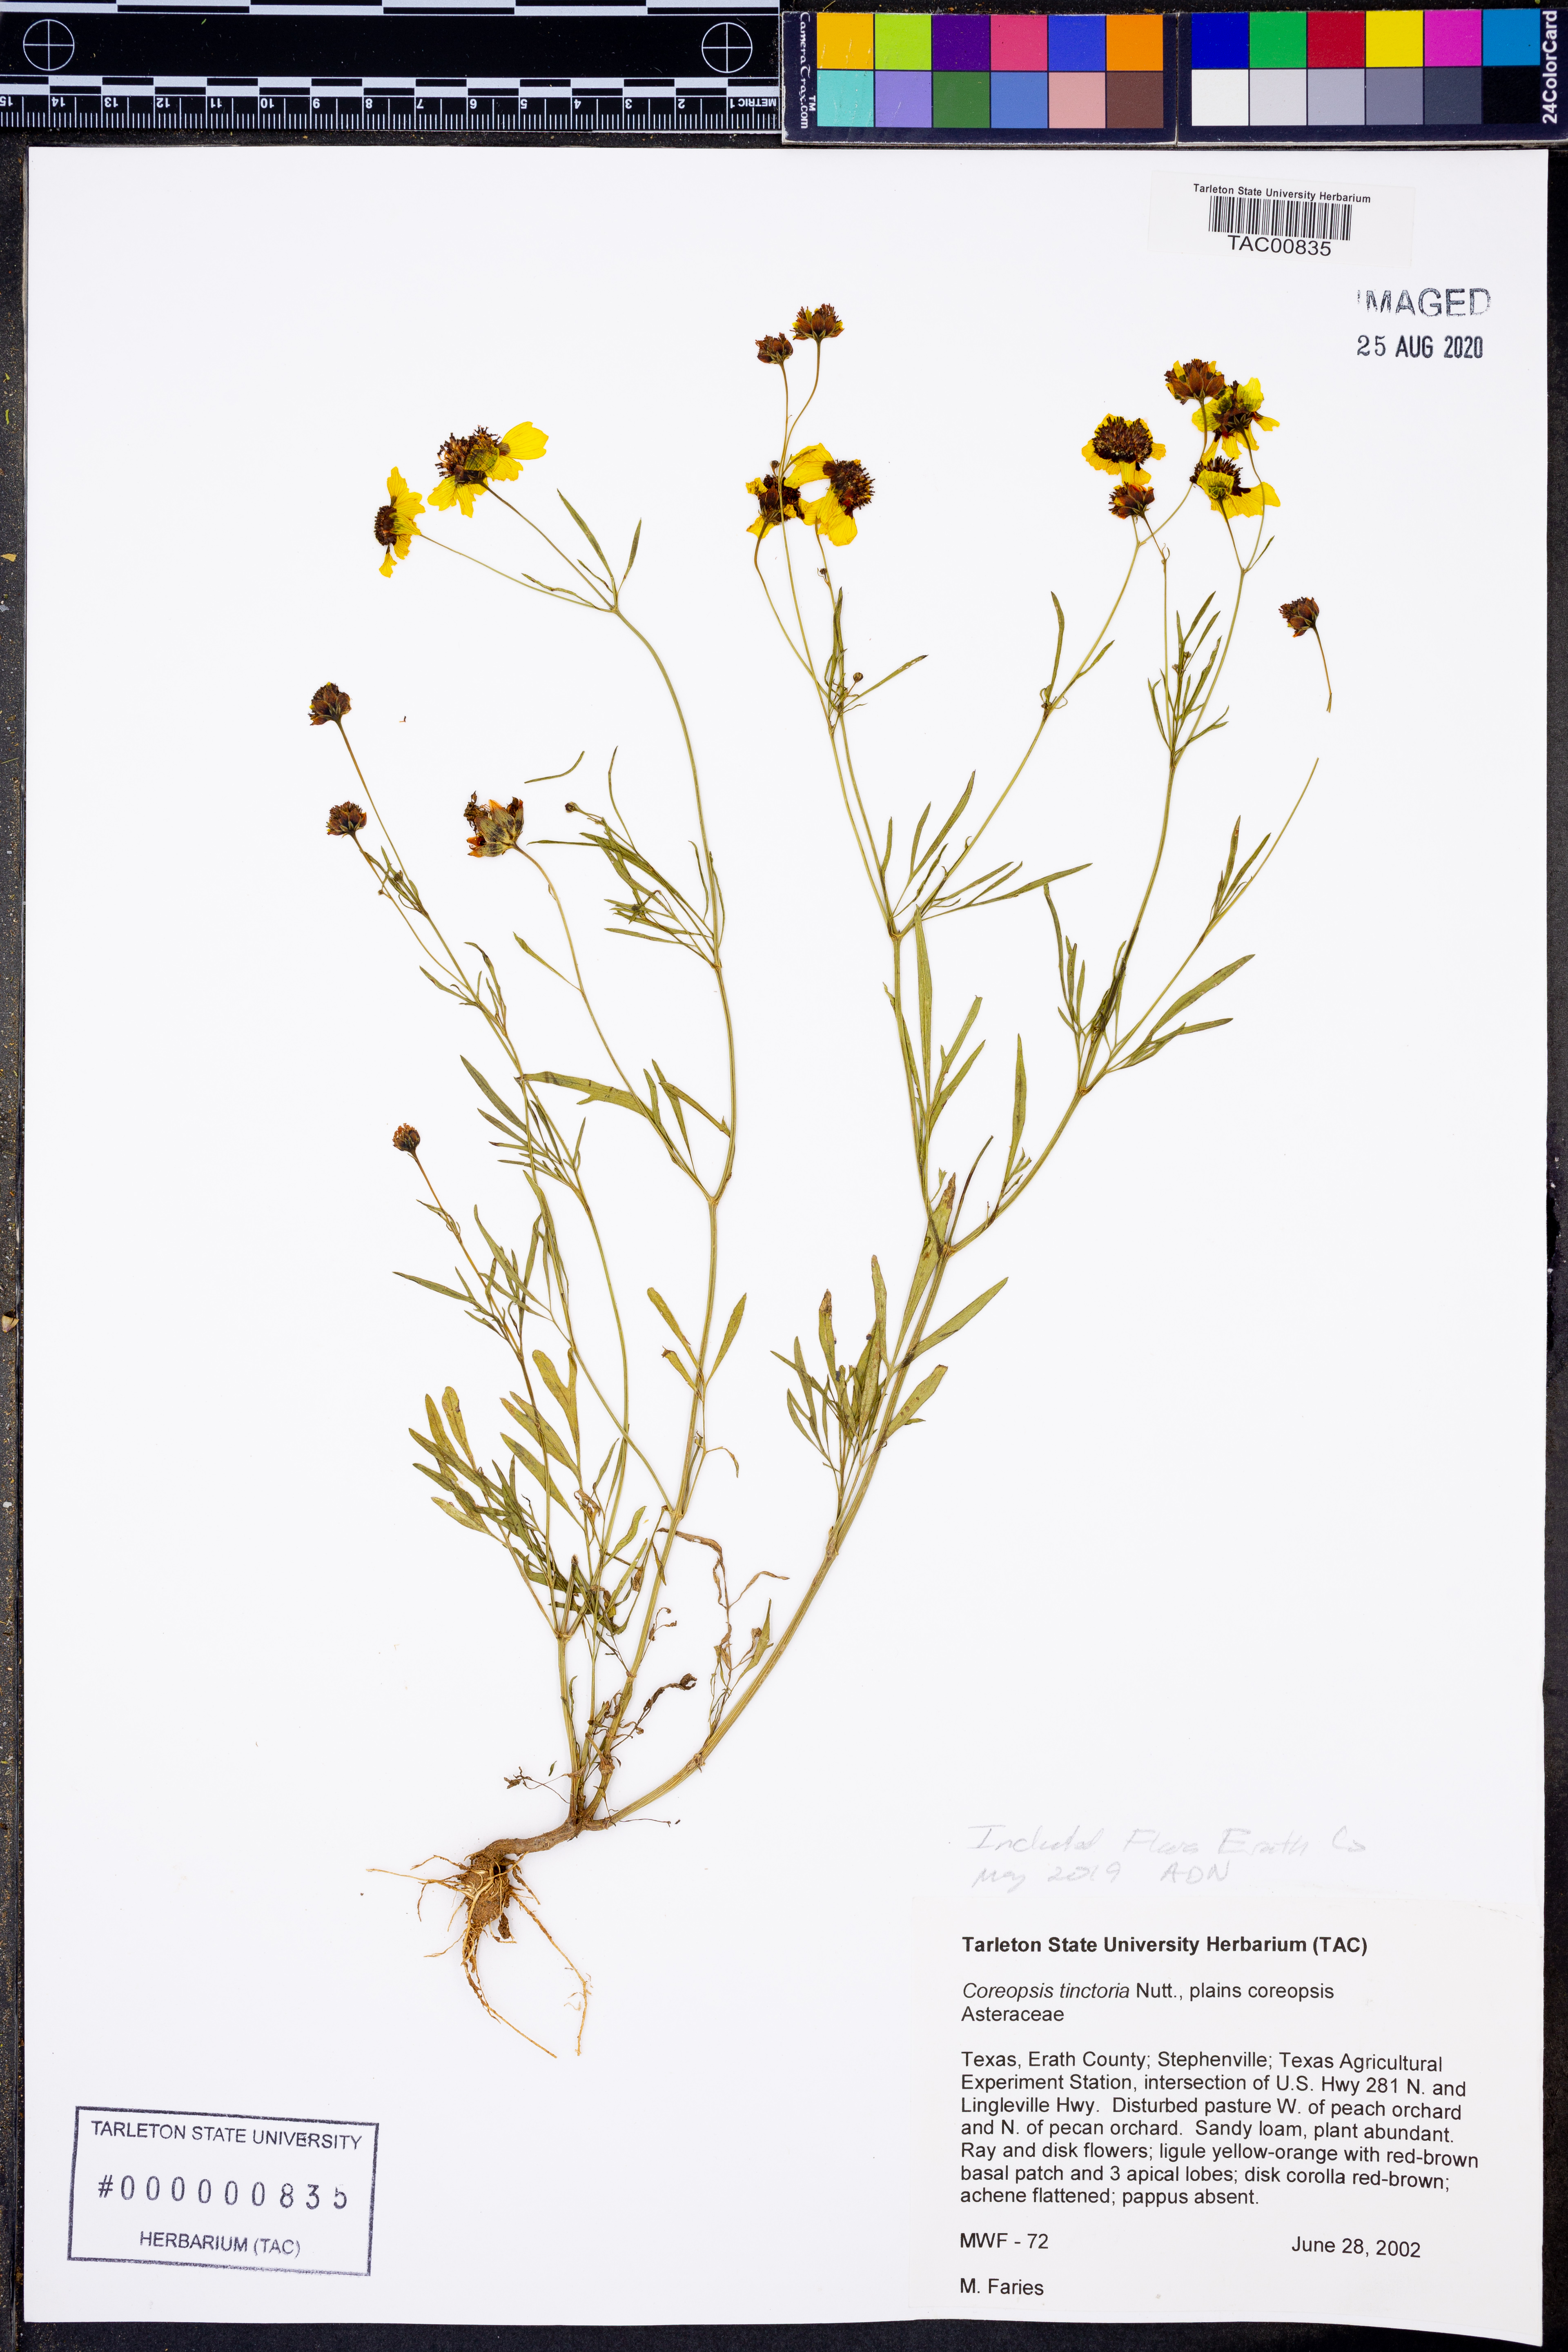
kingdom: Plantae
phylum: Tracheophyta
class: Magnoliopsida
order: Asterales
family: Asteraceae
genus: Coreopsis
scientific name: Coreopsis tinctoria
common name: Garden tickseed
